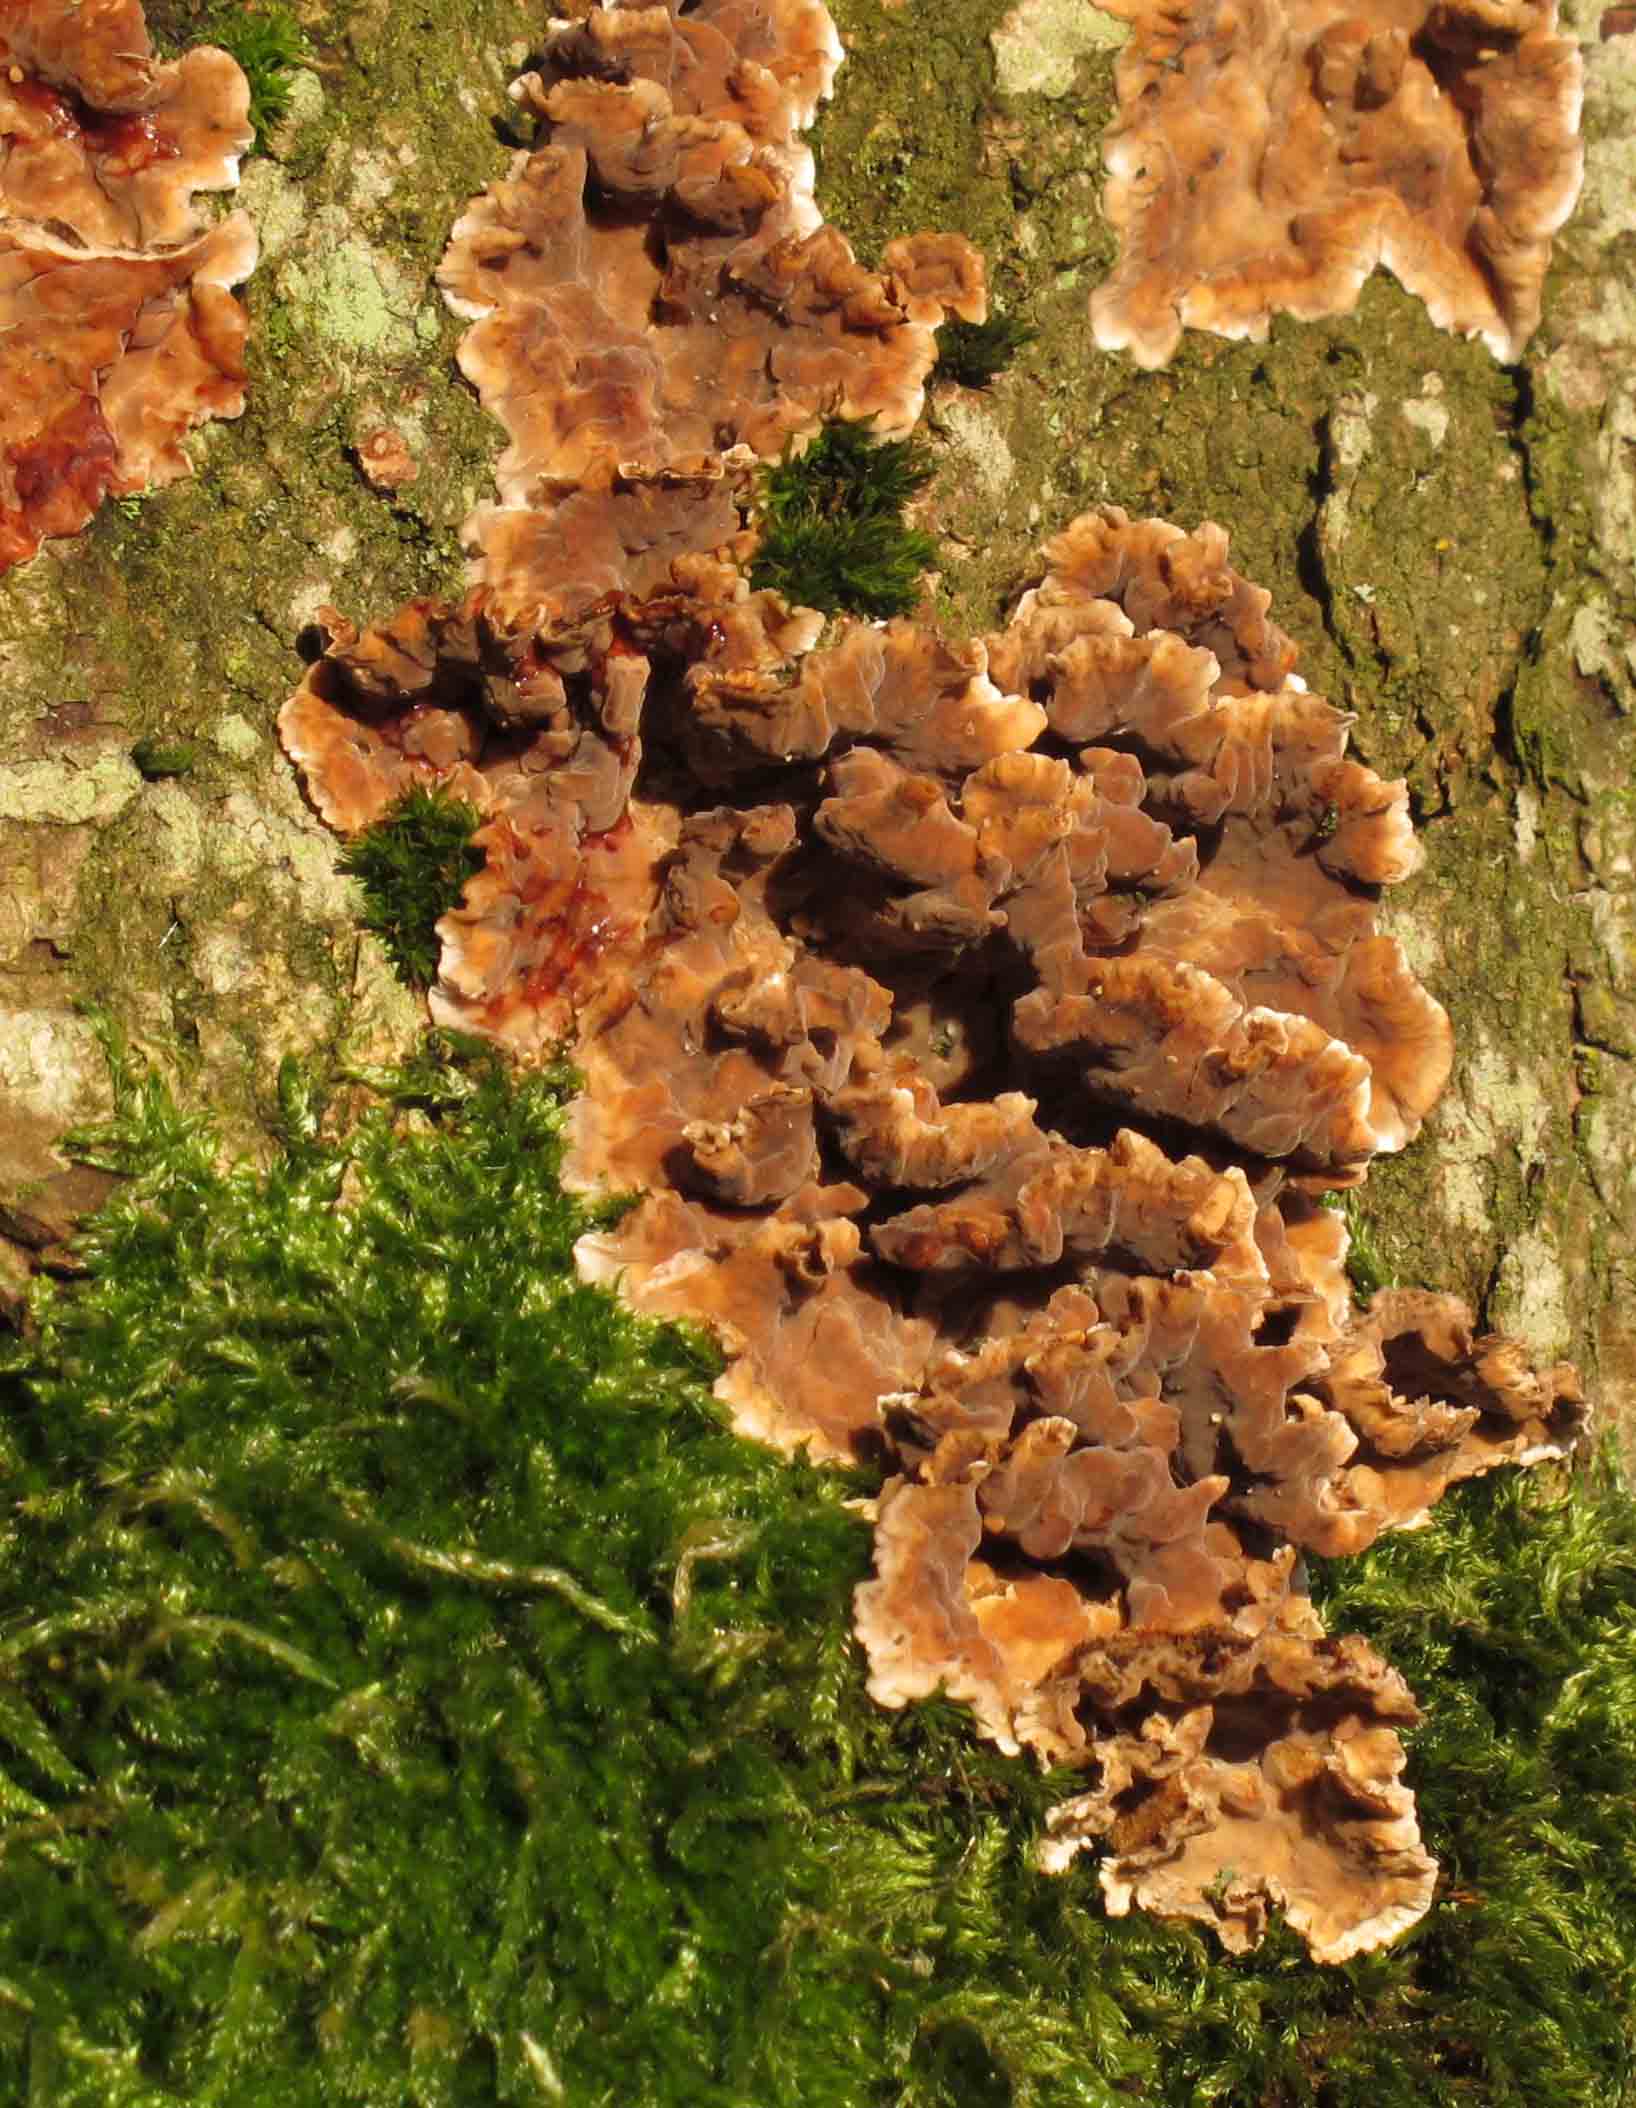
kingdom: Fungi
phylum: Basidiomycota
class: Agaricomycetes
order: Russulales
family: Stereaceae
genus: Stereum
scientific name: Stereum gausapatum
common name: tynd lædersvamp
